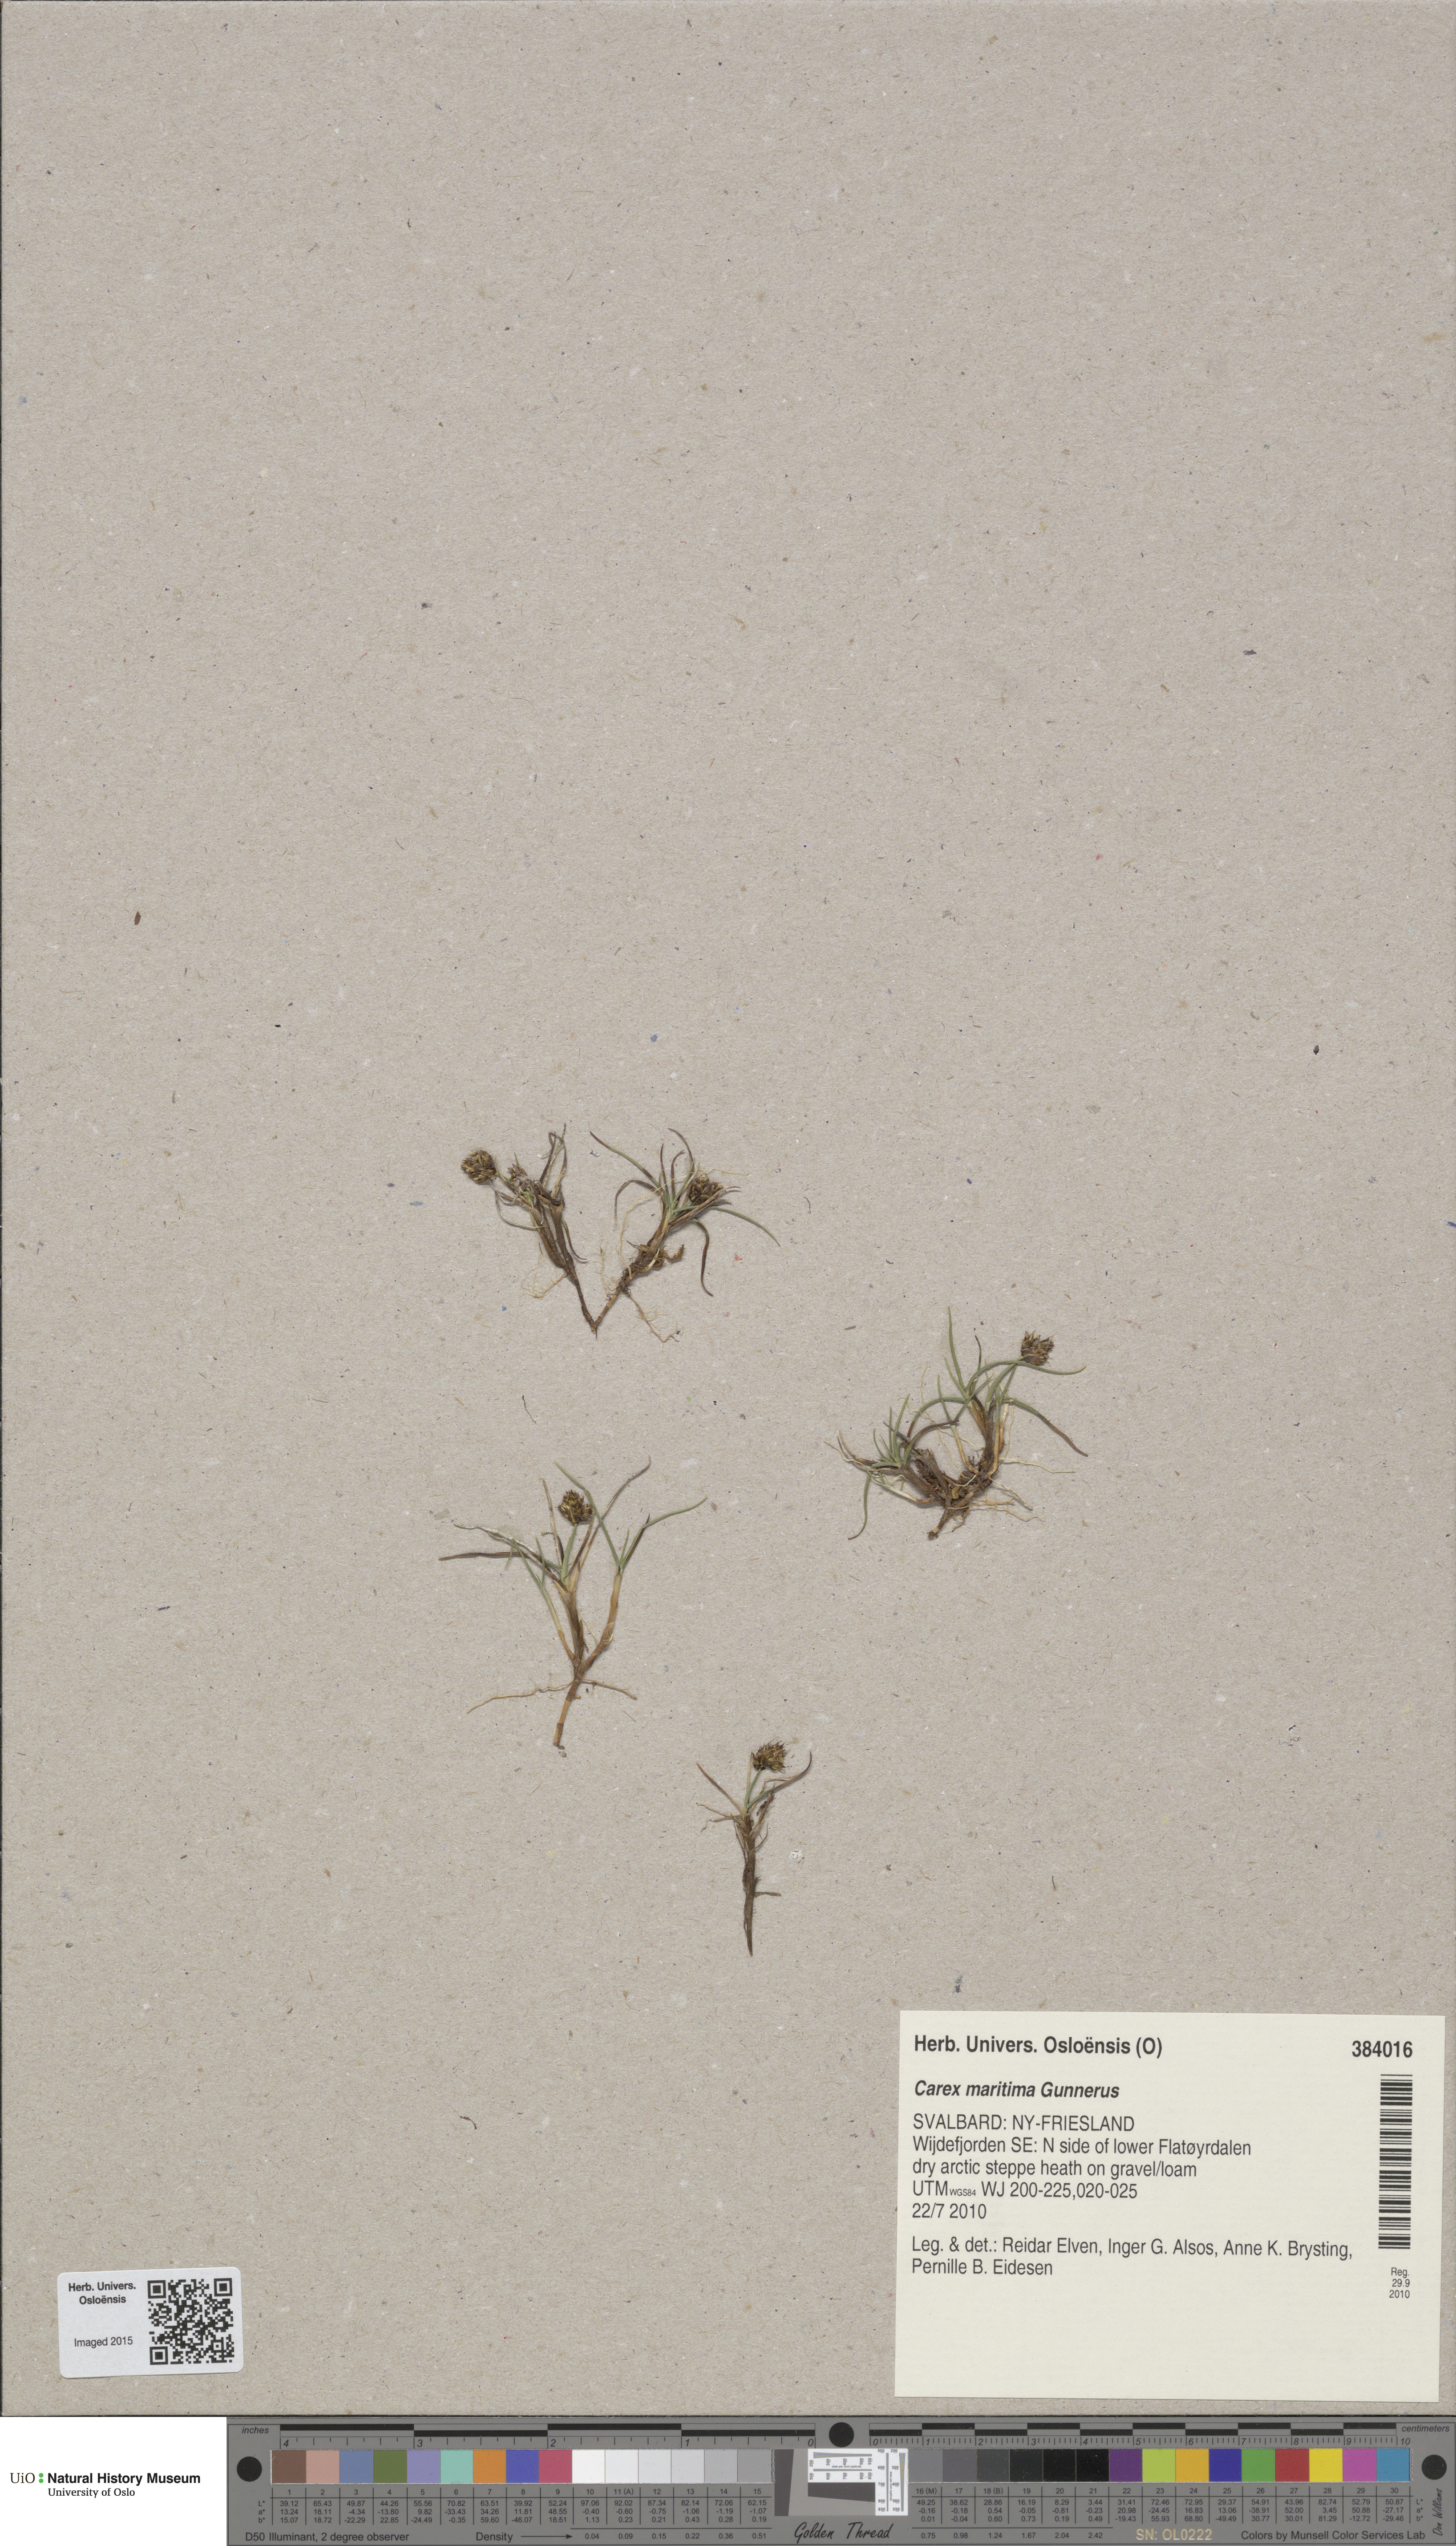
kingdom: Plantae
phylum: Tracheophyta
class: Liliopsida
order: Poales
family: Cyperaceae
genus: Carex
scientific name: Carex maritima
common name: Curved sedge
